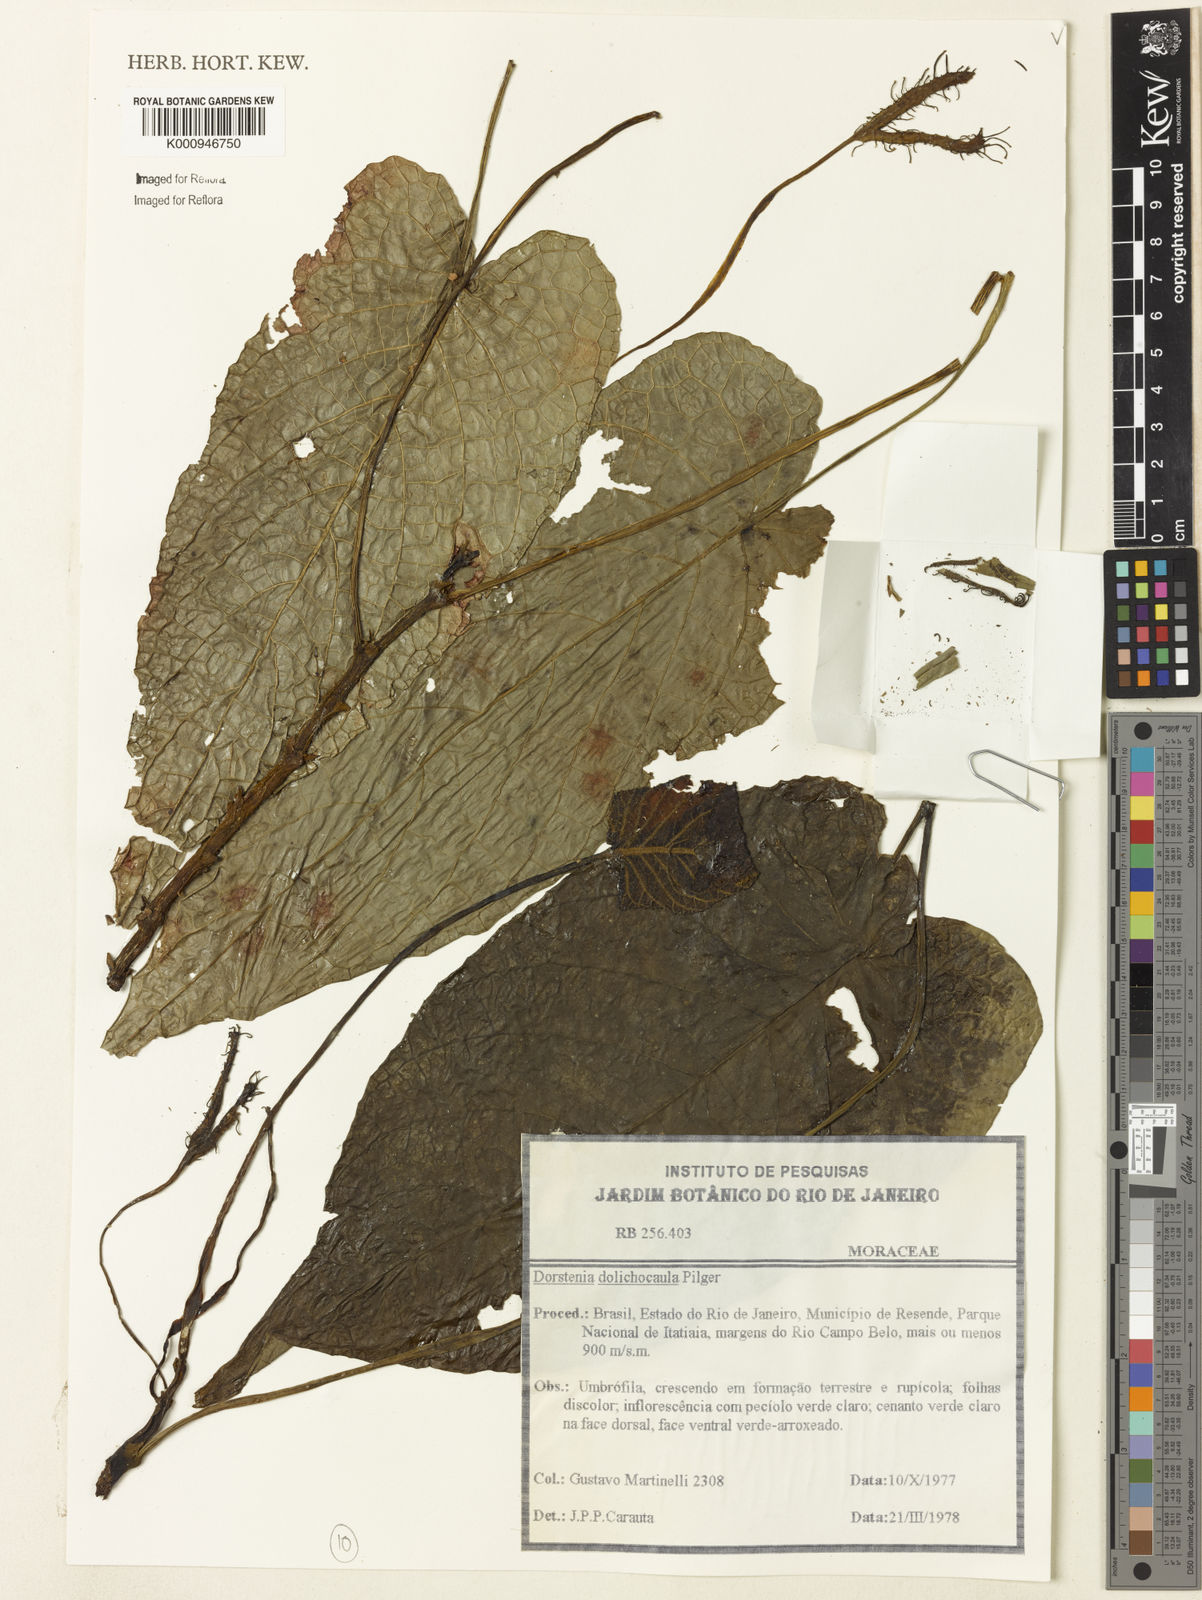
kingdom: Plantae
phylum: Tracheophyta
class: Magnoliopsida
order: Rosales
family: Moraceae
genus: Dorstenia
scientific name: Dorstenia ramosa
